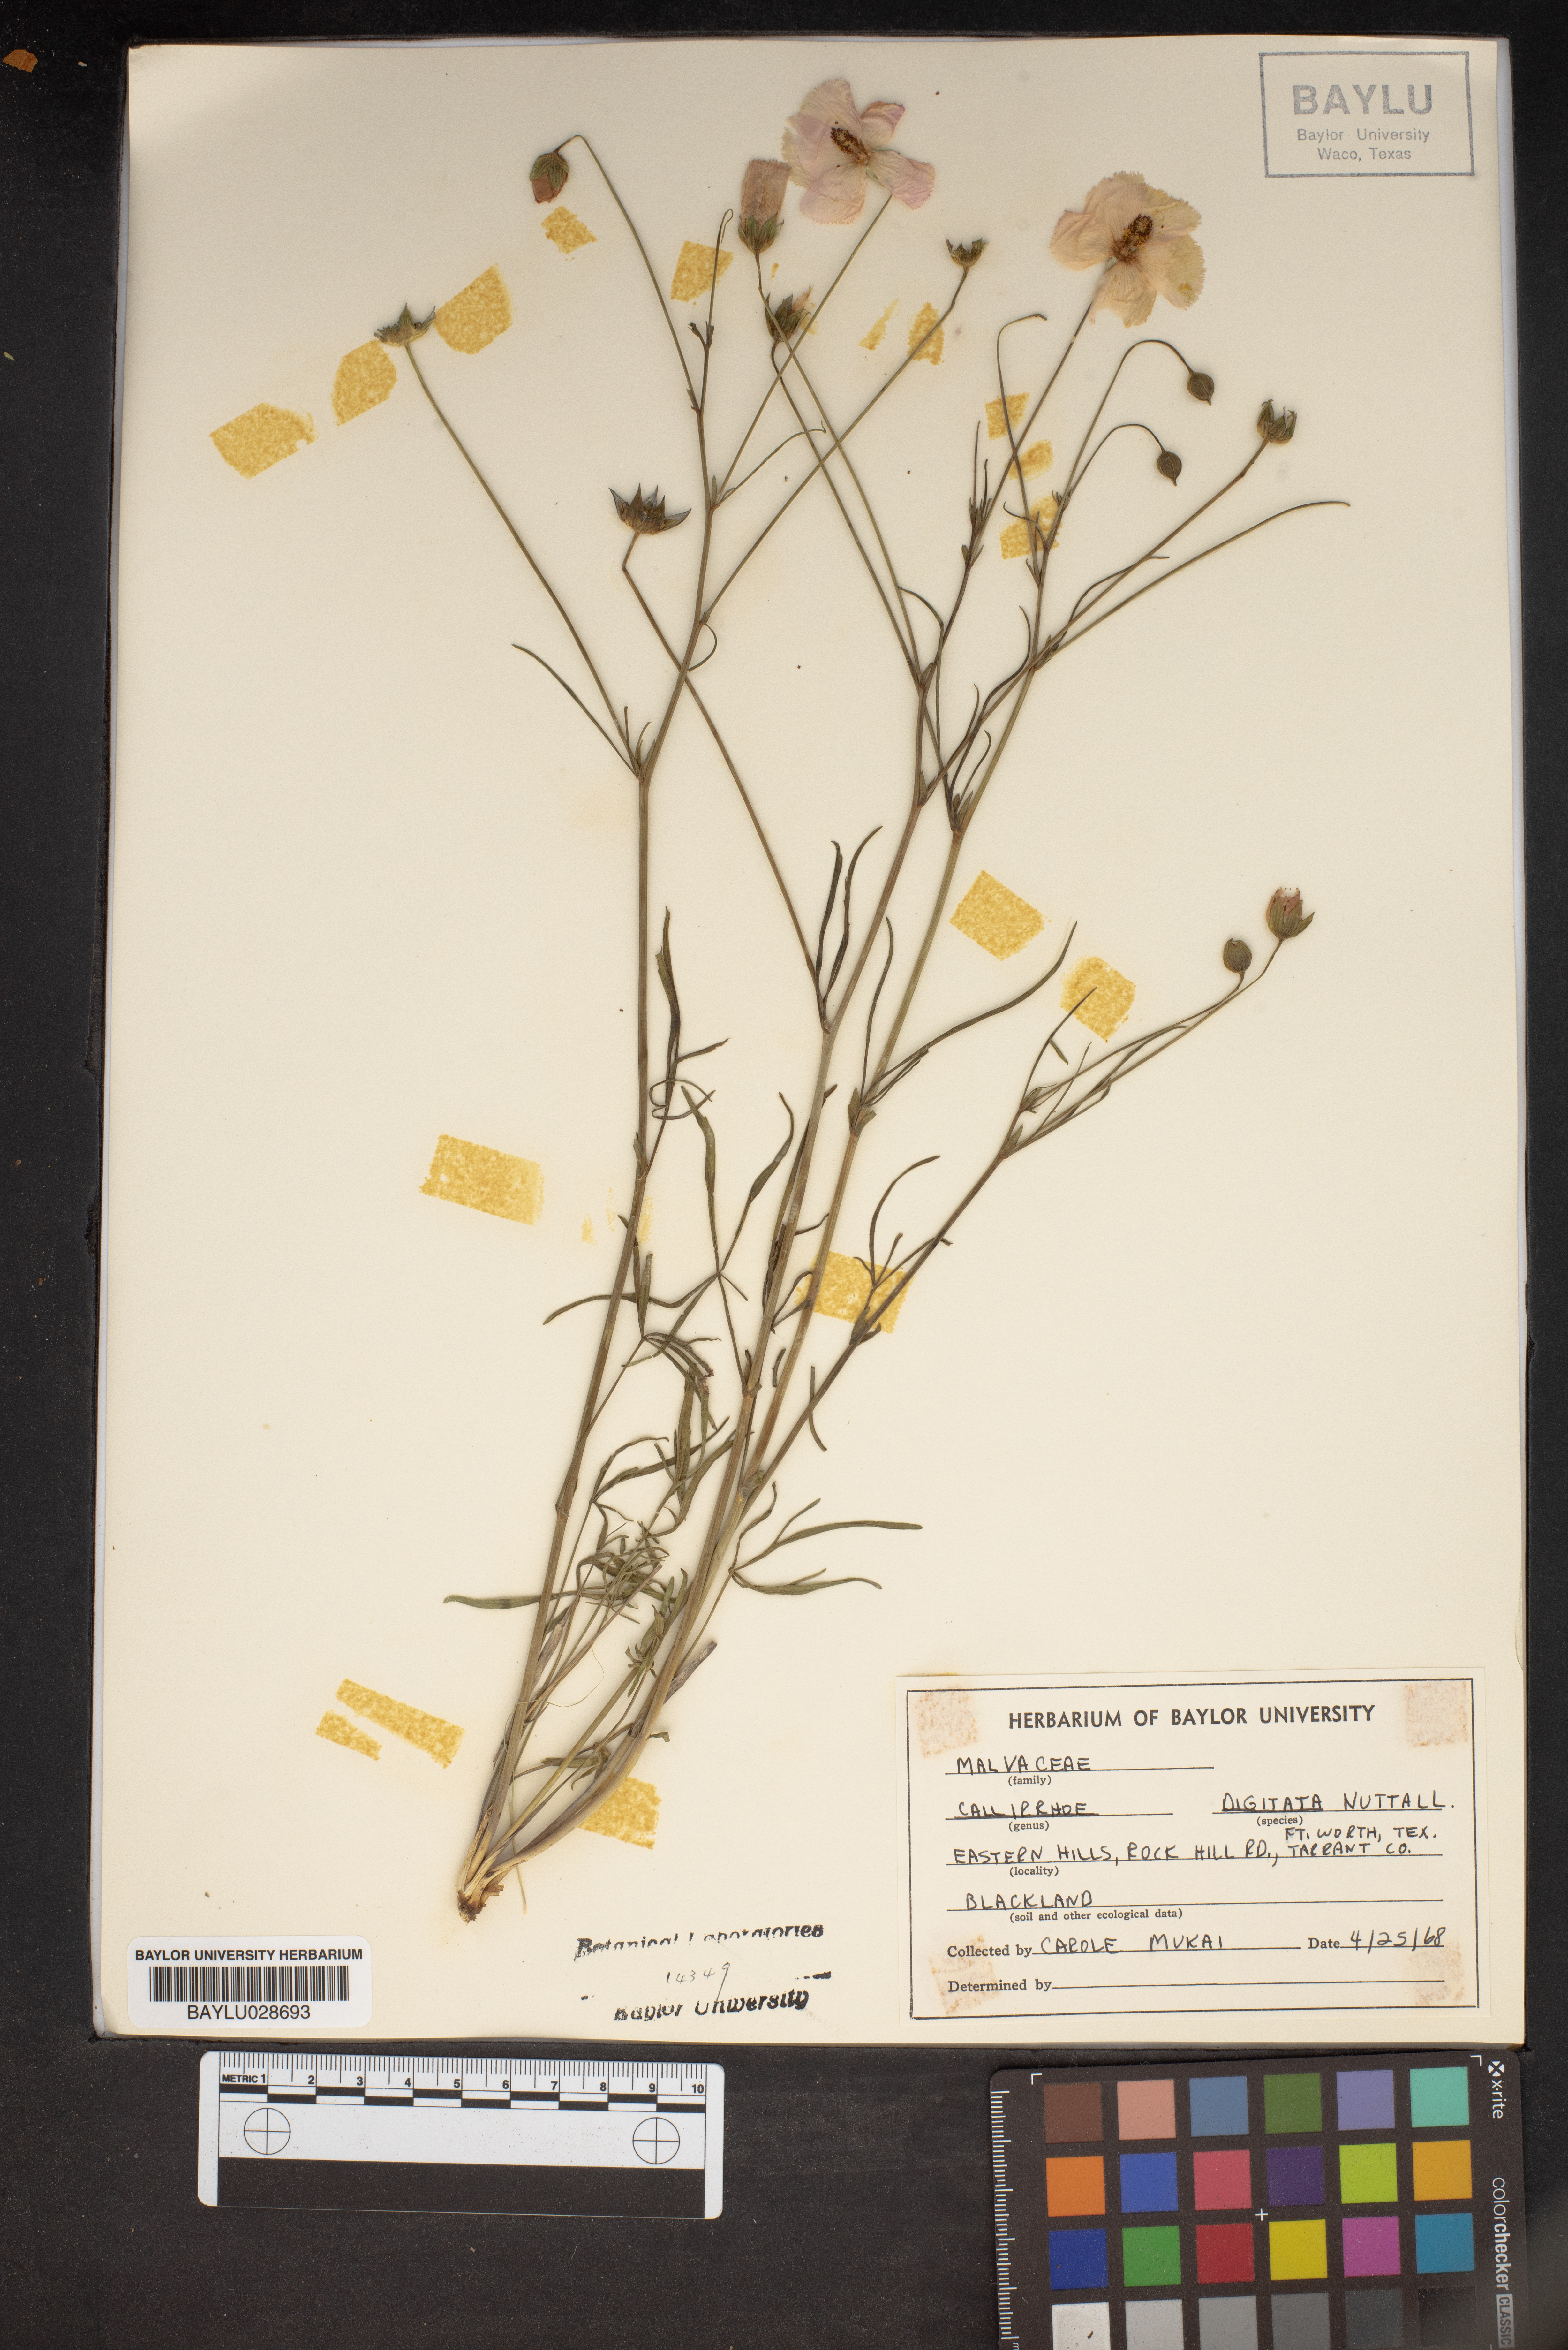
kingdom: Plantae
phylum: Tracheophyta
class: Magnoliopsida
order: Malvales
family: Malvaceae
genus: Callirhoe
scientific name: Callirhoe digitata
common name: Finger poppy-mallow
